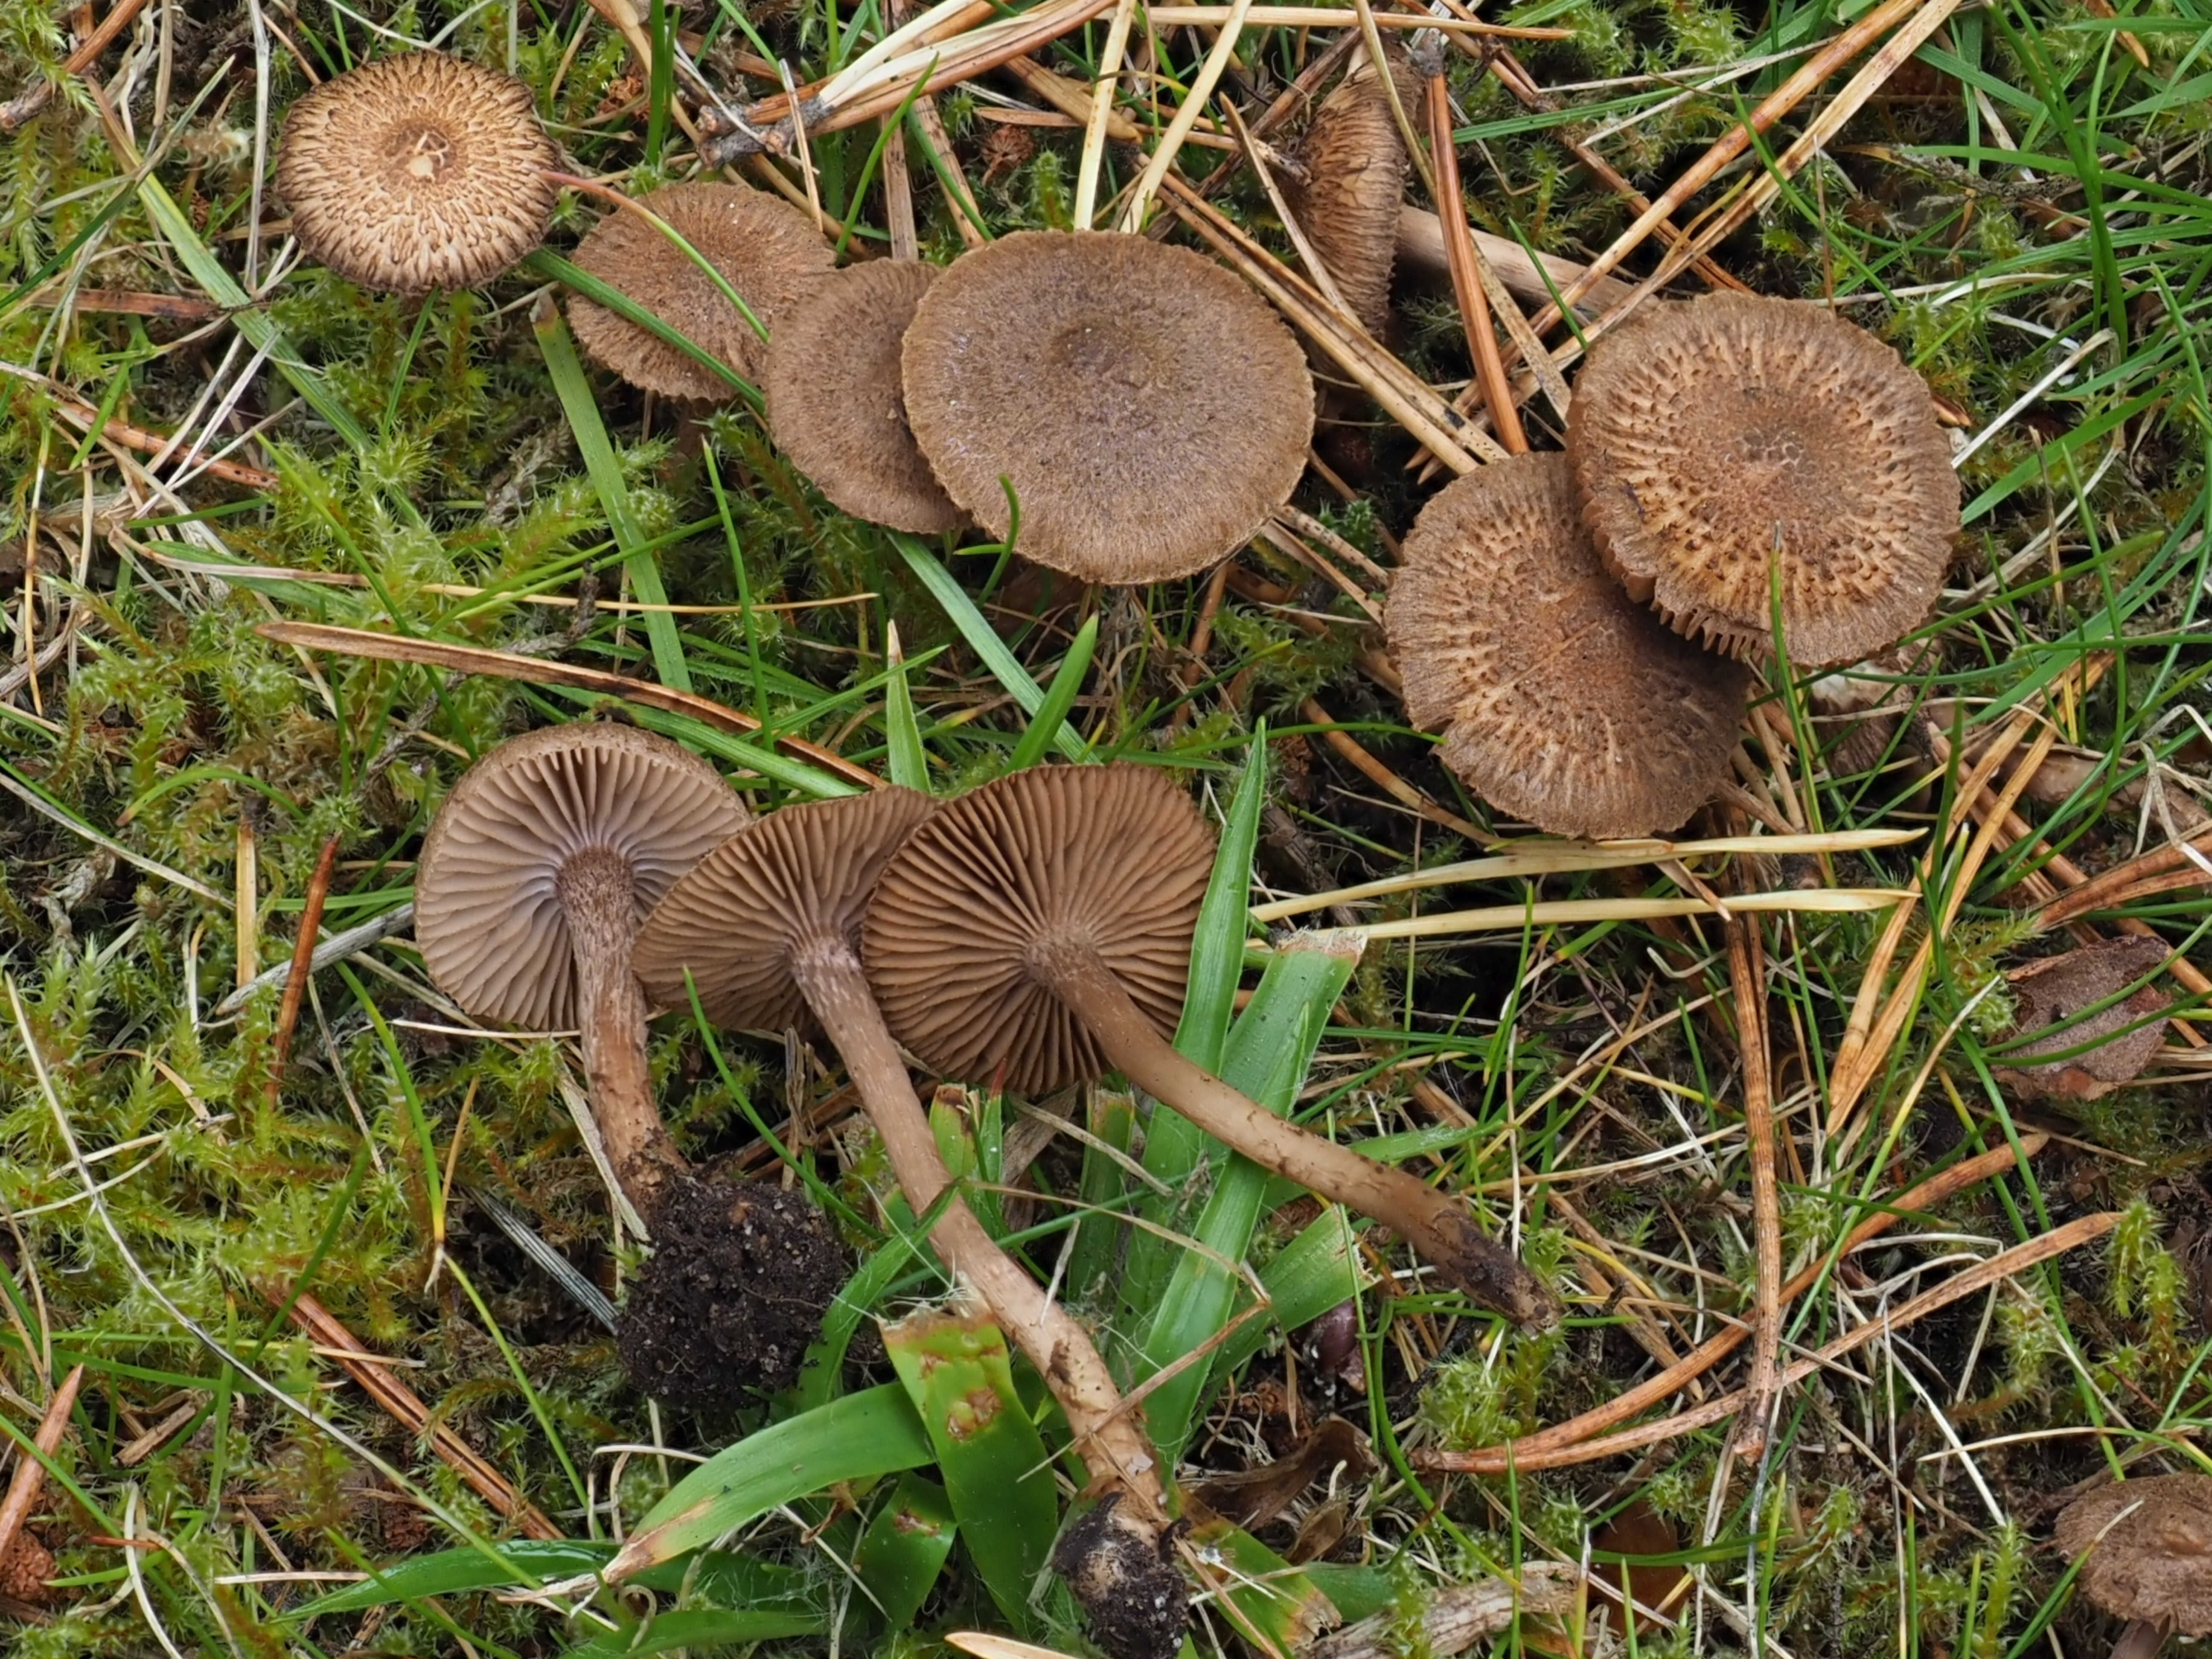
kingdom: Fungi
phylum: Basidiomycota
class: Agaricomycetes
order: Agaricales
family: Inocybaceae
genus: Inocybe
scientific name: Inocybe cincinnata
